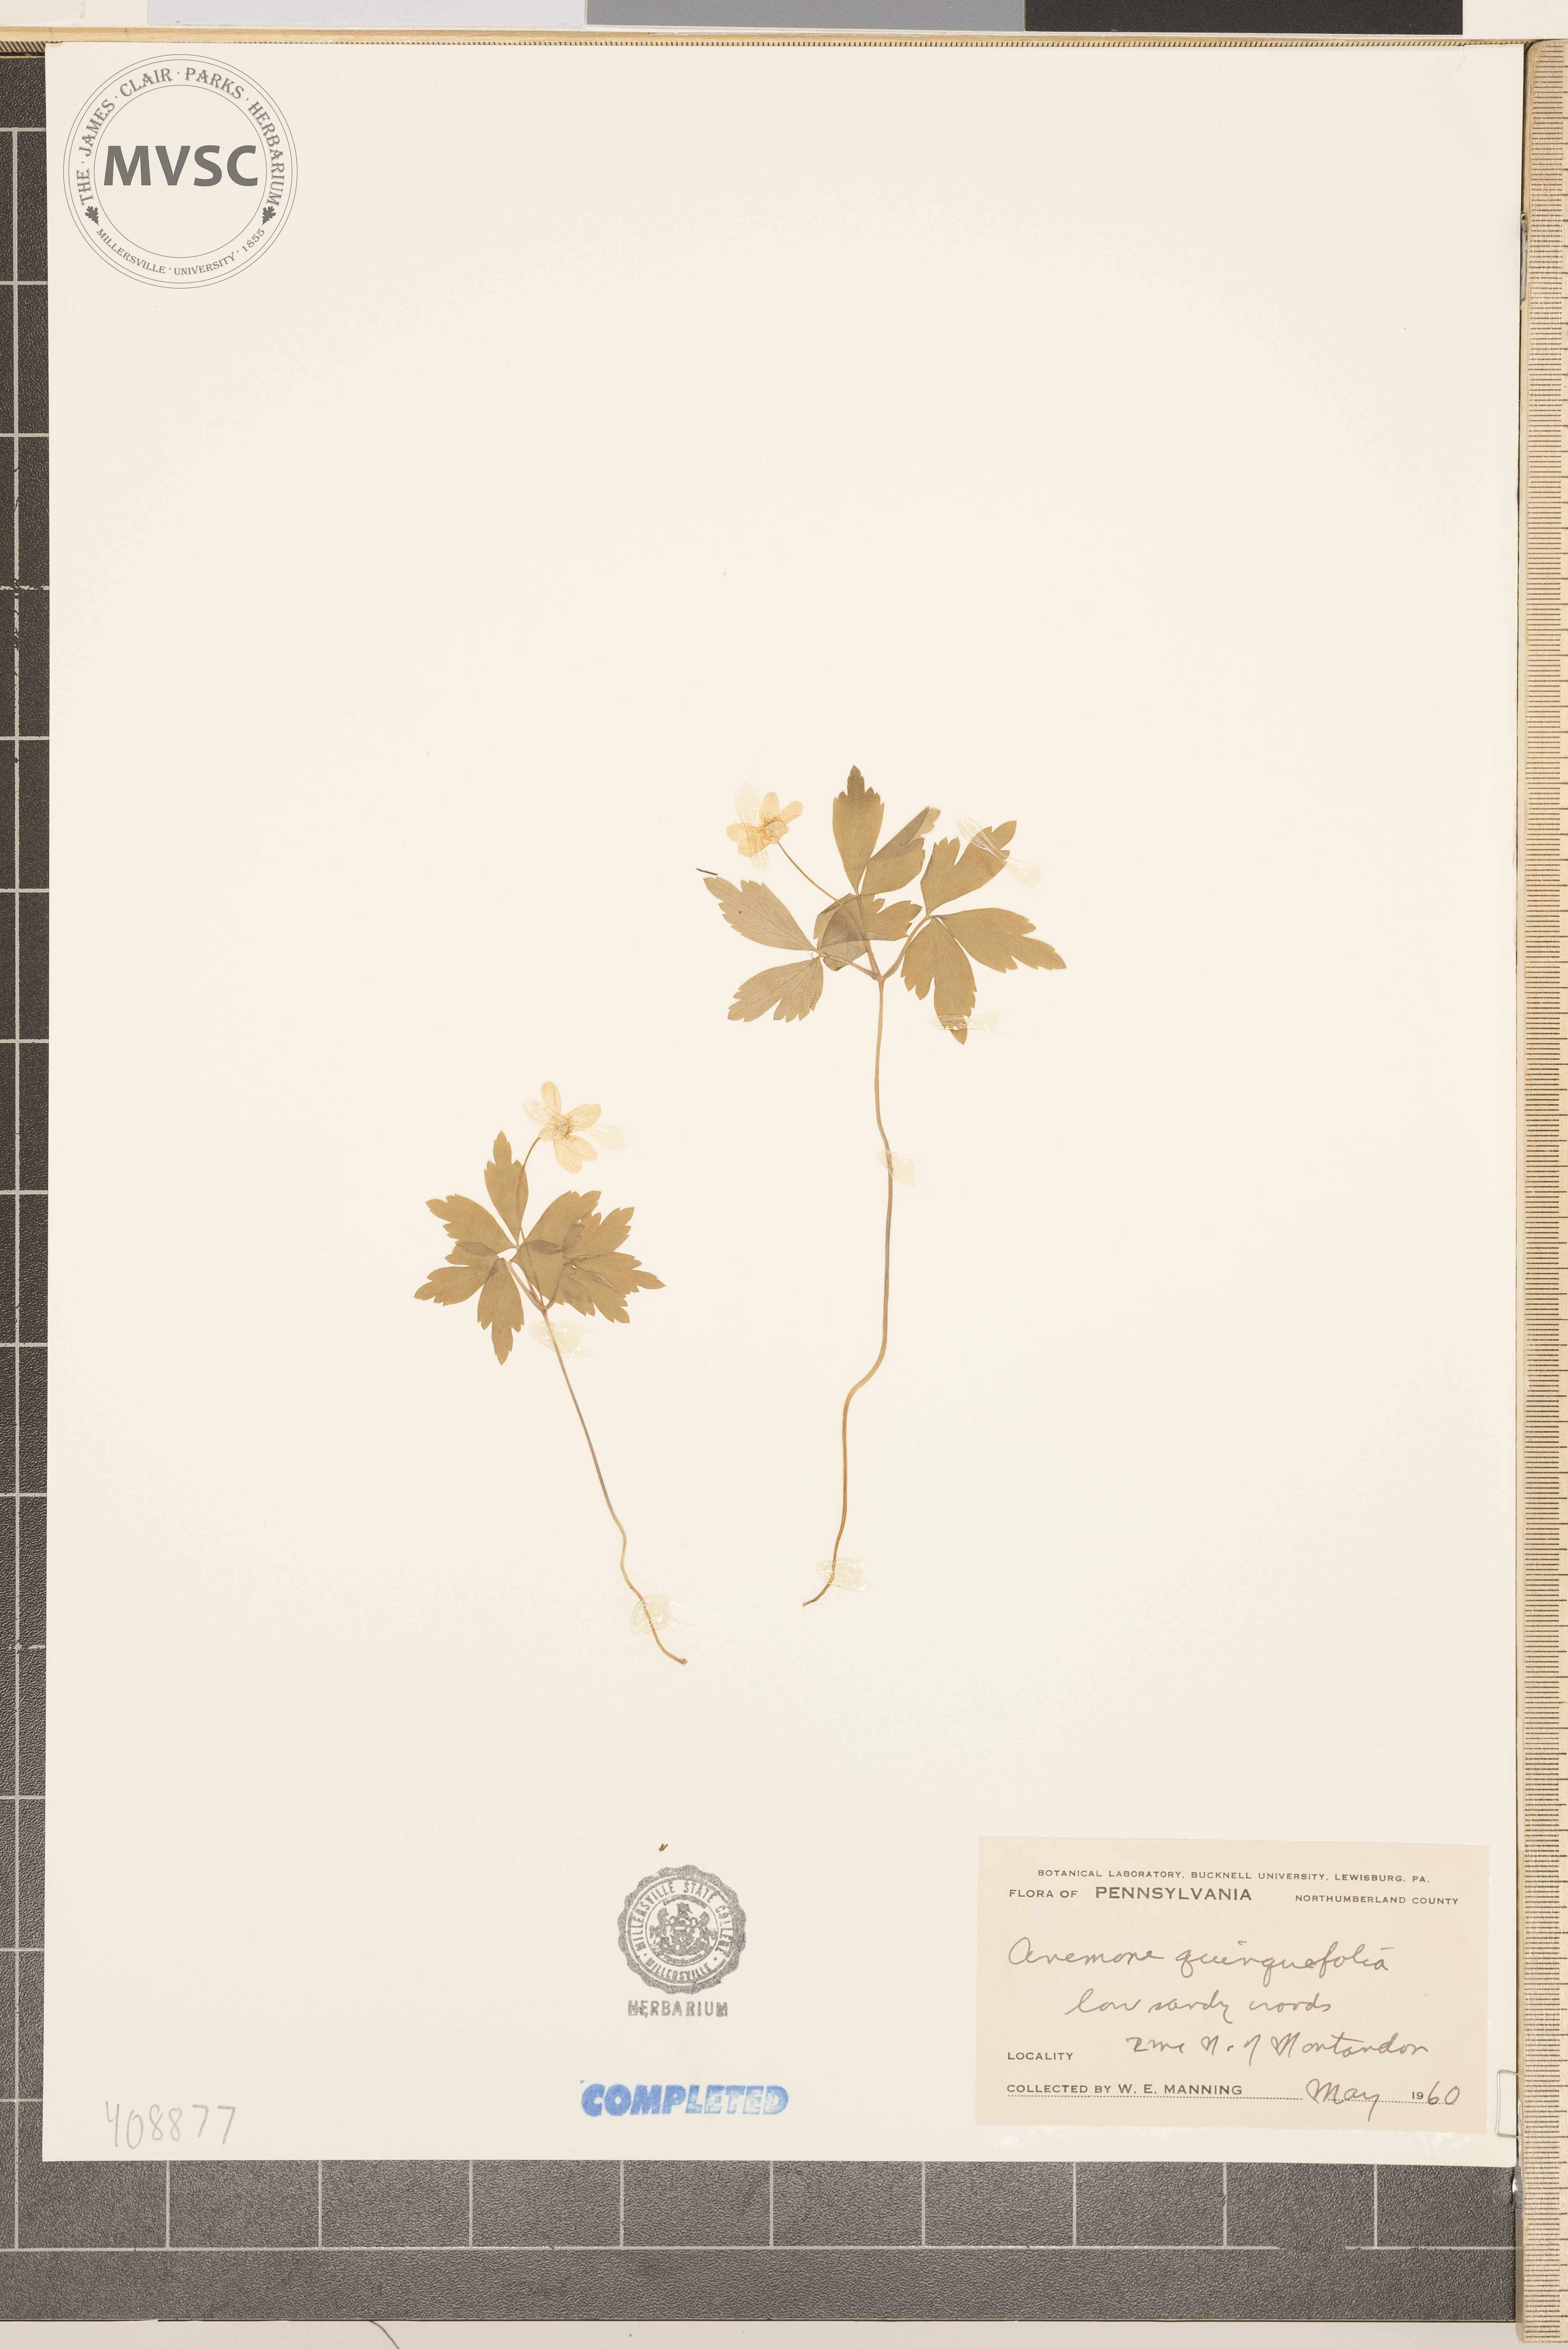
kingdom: Plantae
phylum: Tracheophyta
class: Magnoliopsida
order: Ranunculales
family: Ranunculaceae
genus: Anemone
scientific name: Anemone quinquefolia
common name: Wood anemone
